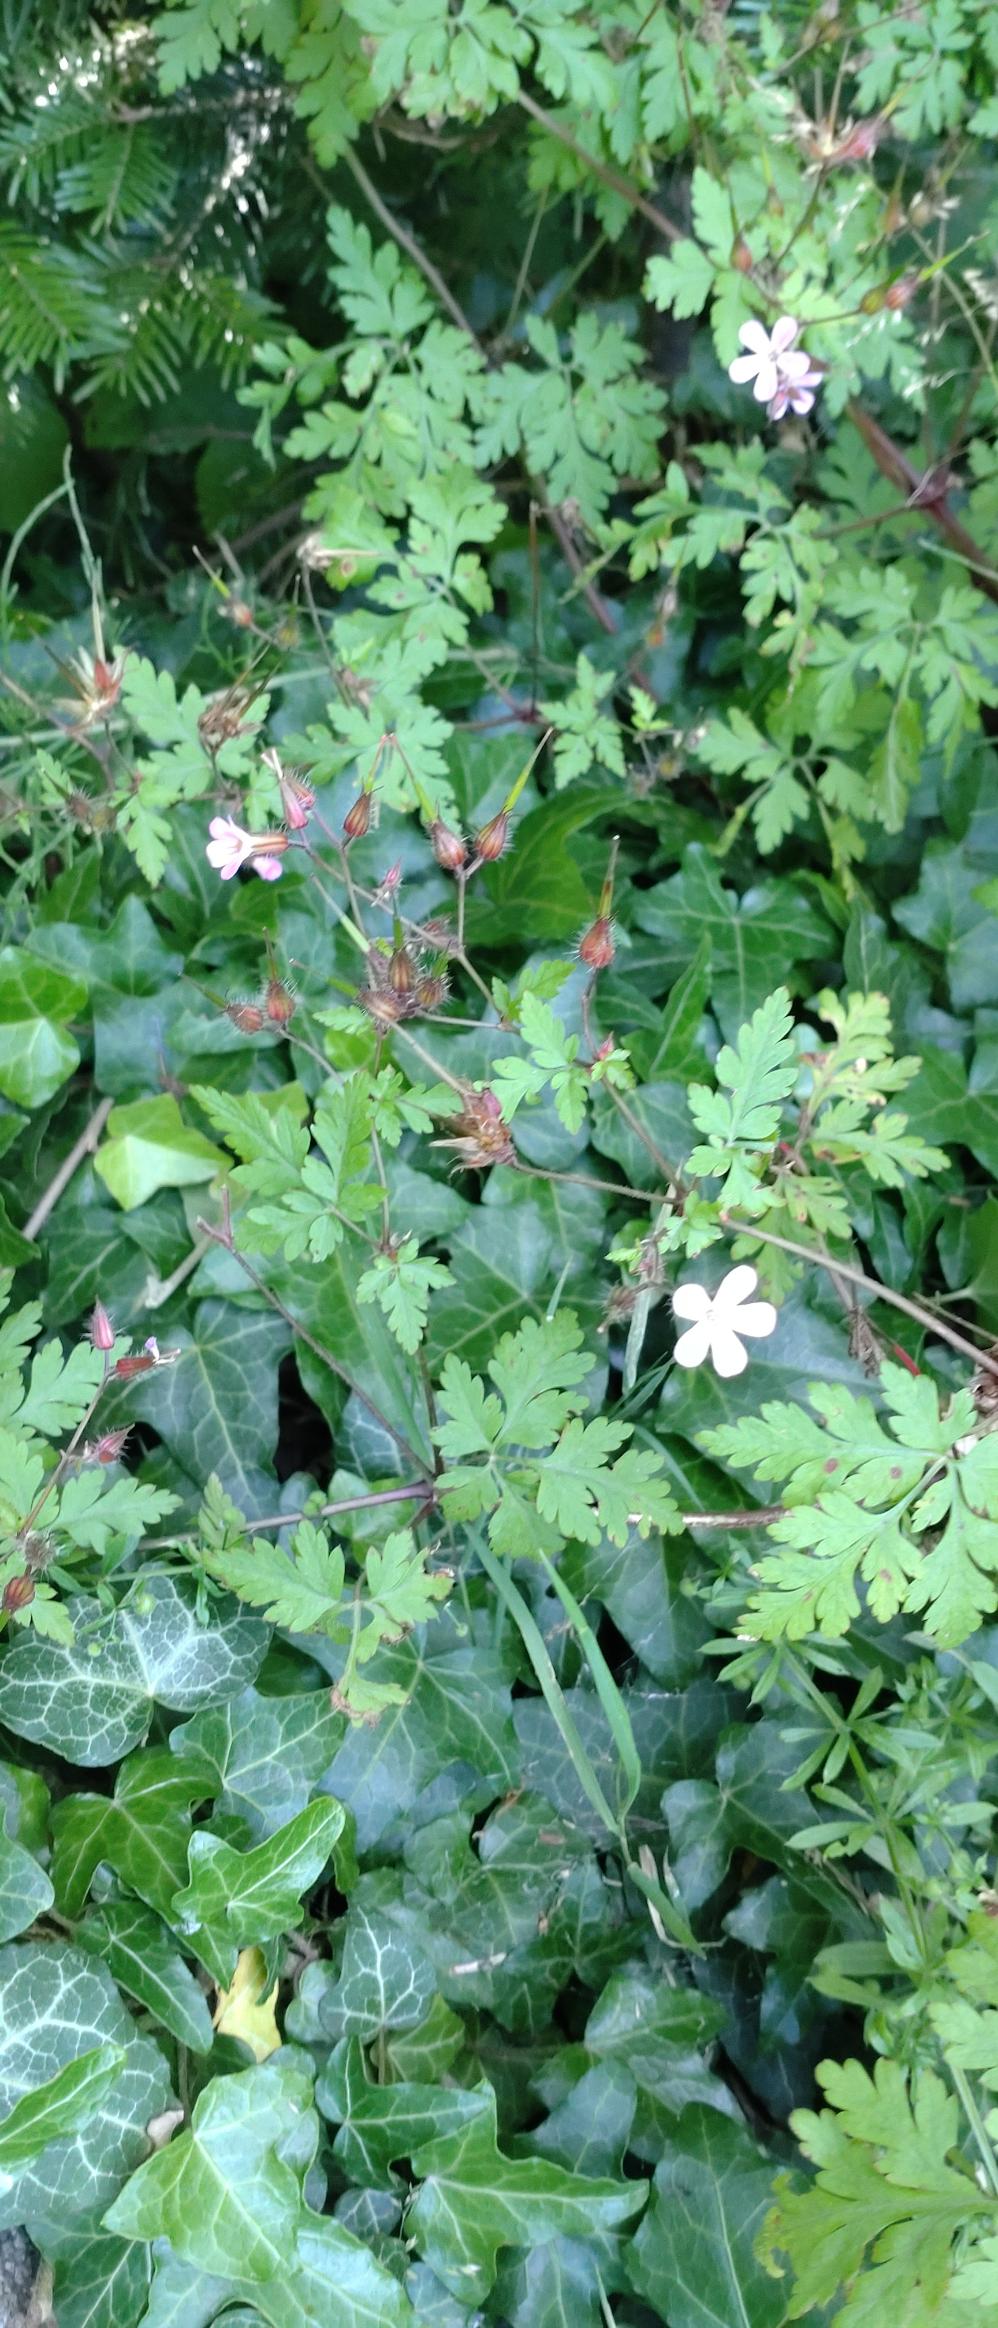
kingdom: Plantae
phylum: Tracheophyta
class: Magnoliopsida
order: Geraniales
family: Geraniaceae
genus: Geranium
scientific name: Geranium robertianum
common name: Stinkende storkenæb
